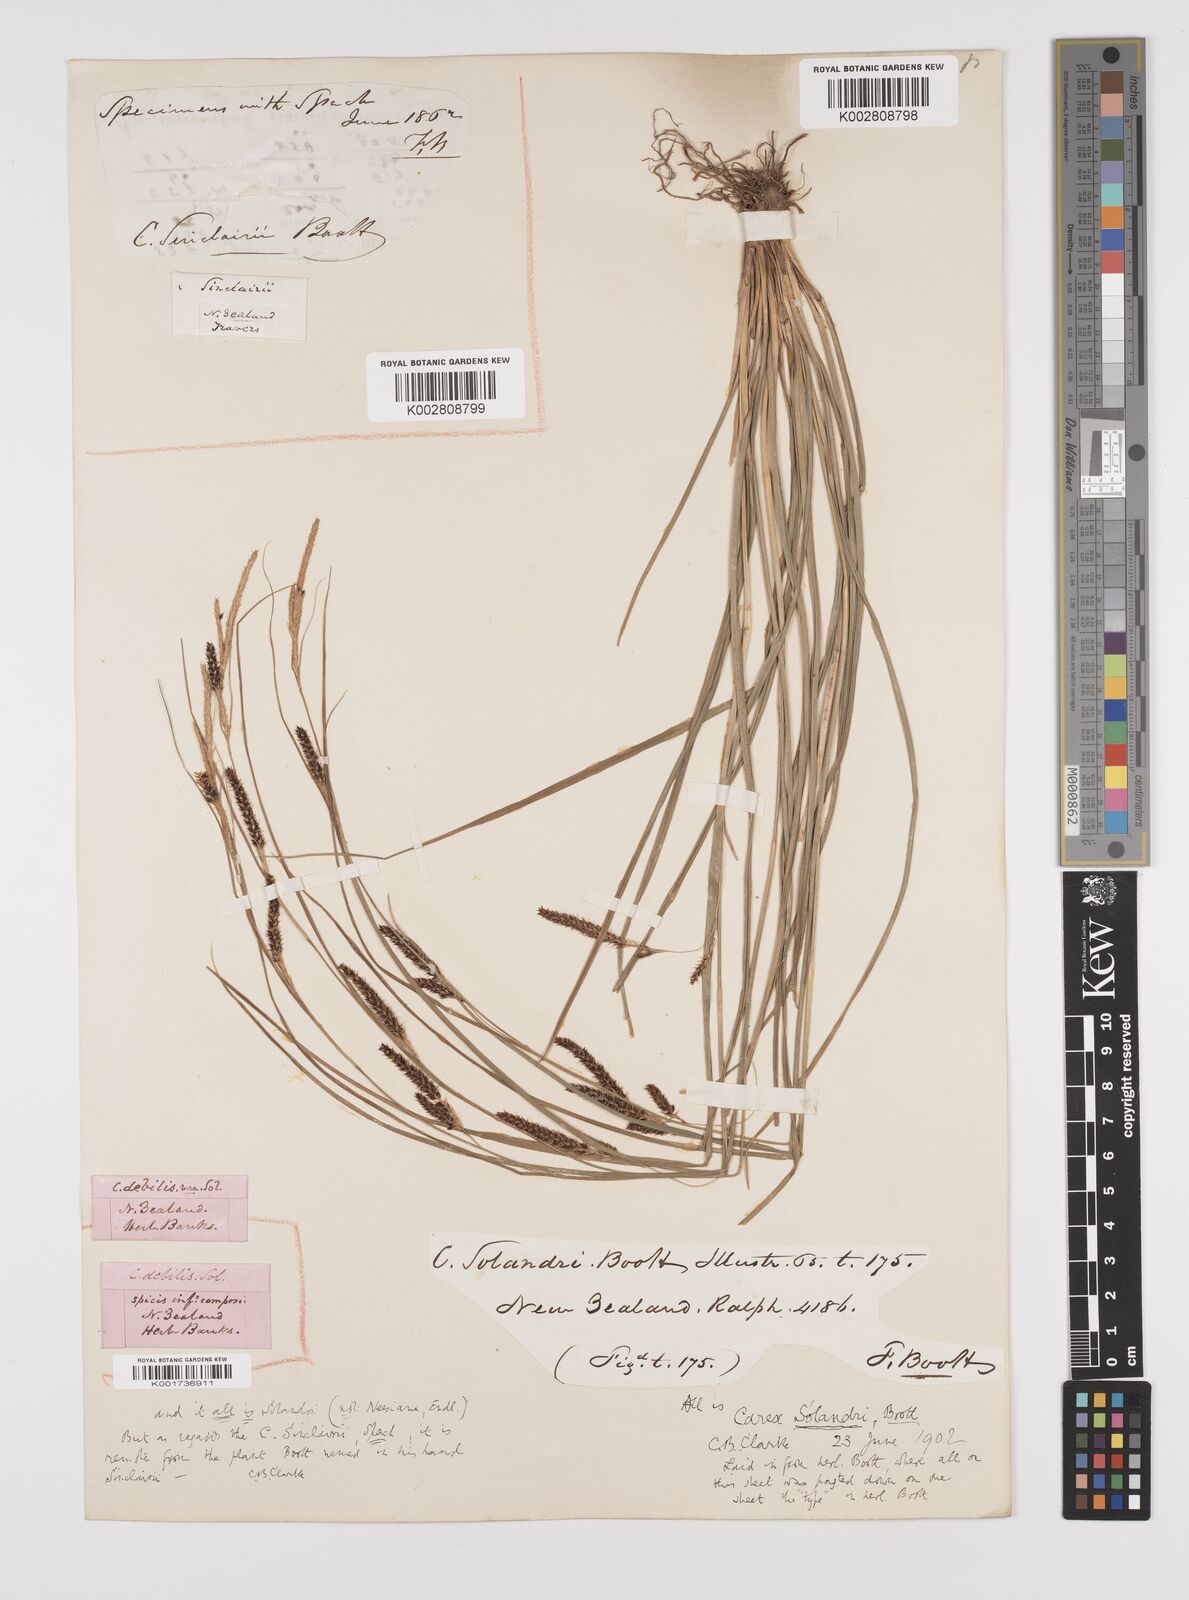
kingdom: Plantae
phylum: Tracheophyta
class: Liliopsida
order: Poales
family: Cyperaceae
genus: Carex
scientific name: Carex solandri
